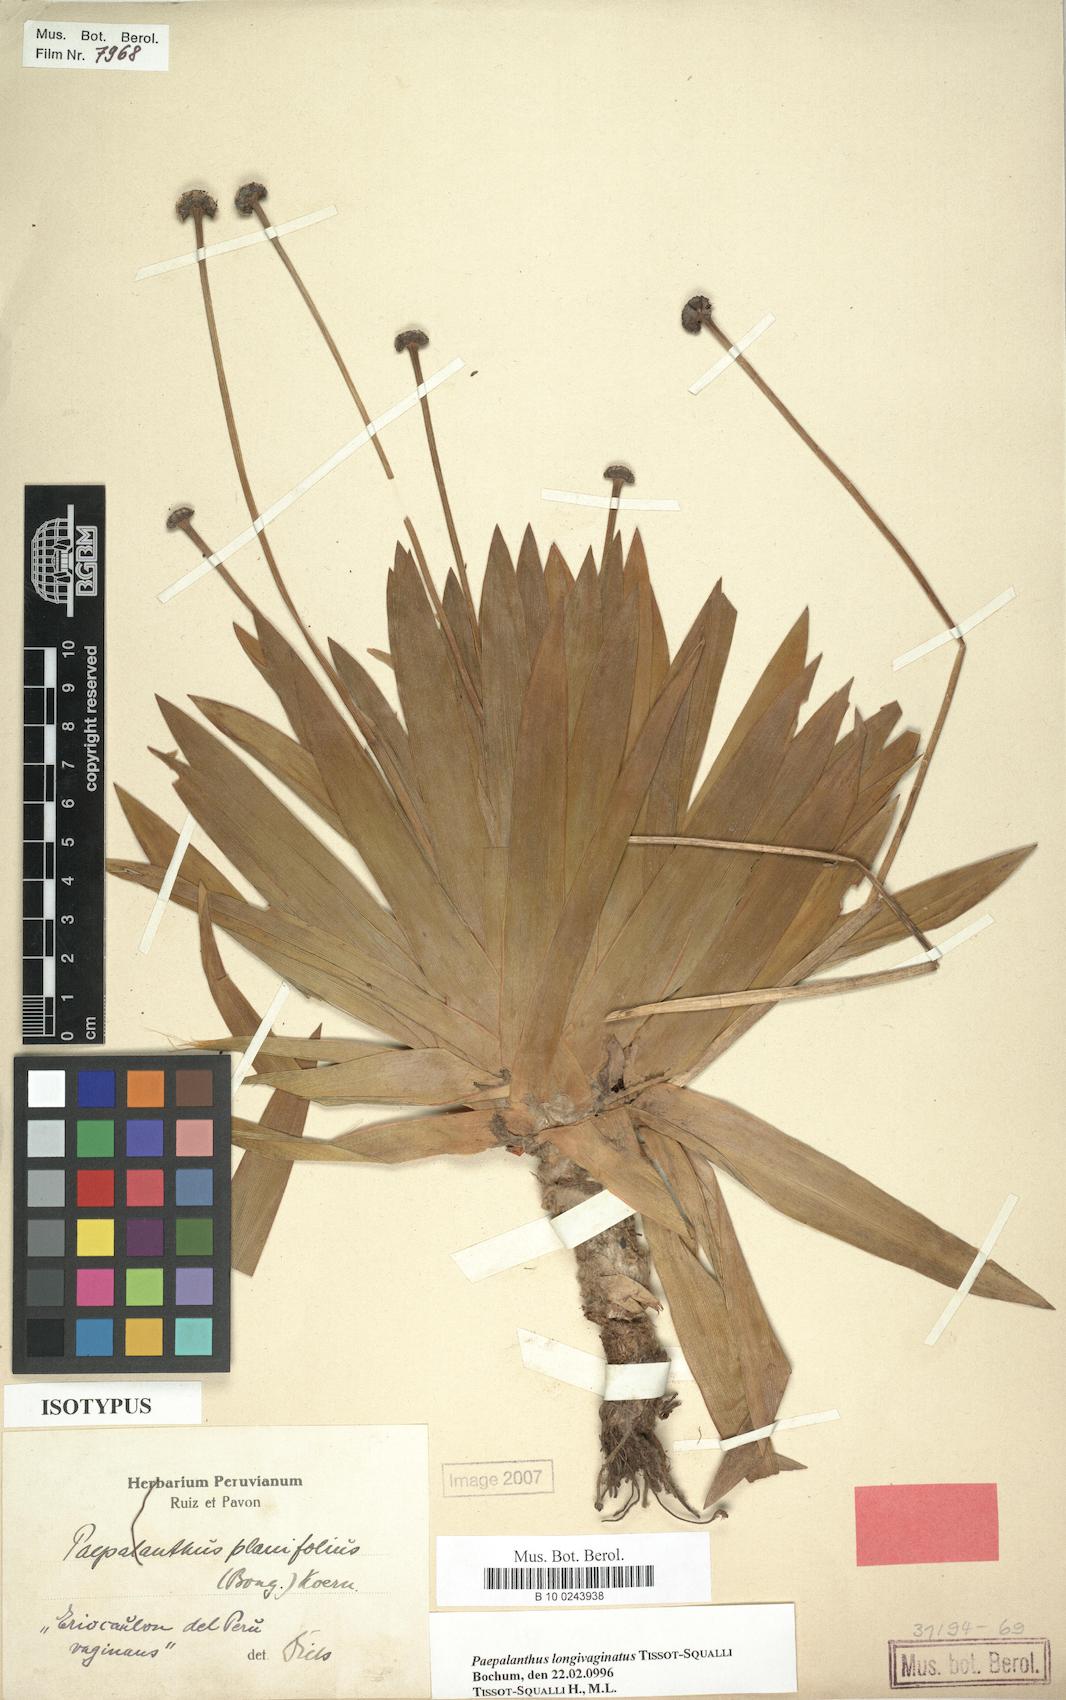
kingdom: Plantae
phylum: Tracheophyta
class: Liliopsida
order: Poales
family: Eriocaulaceae
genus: Paepalanthus
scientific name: Paepalanthus longivaginatus
